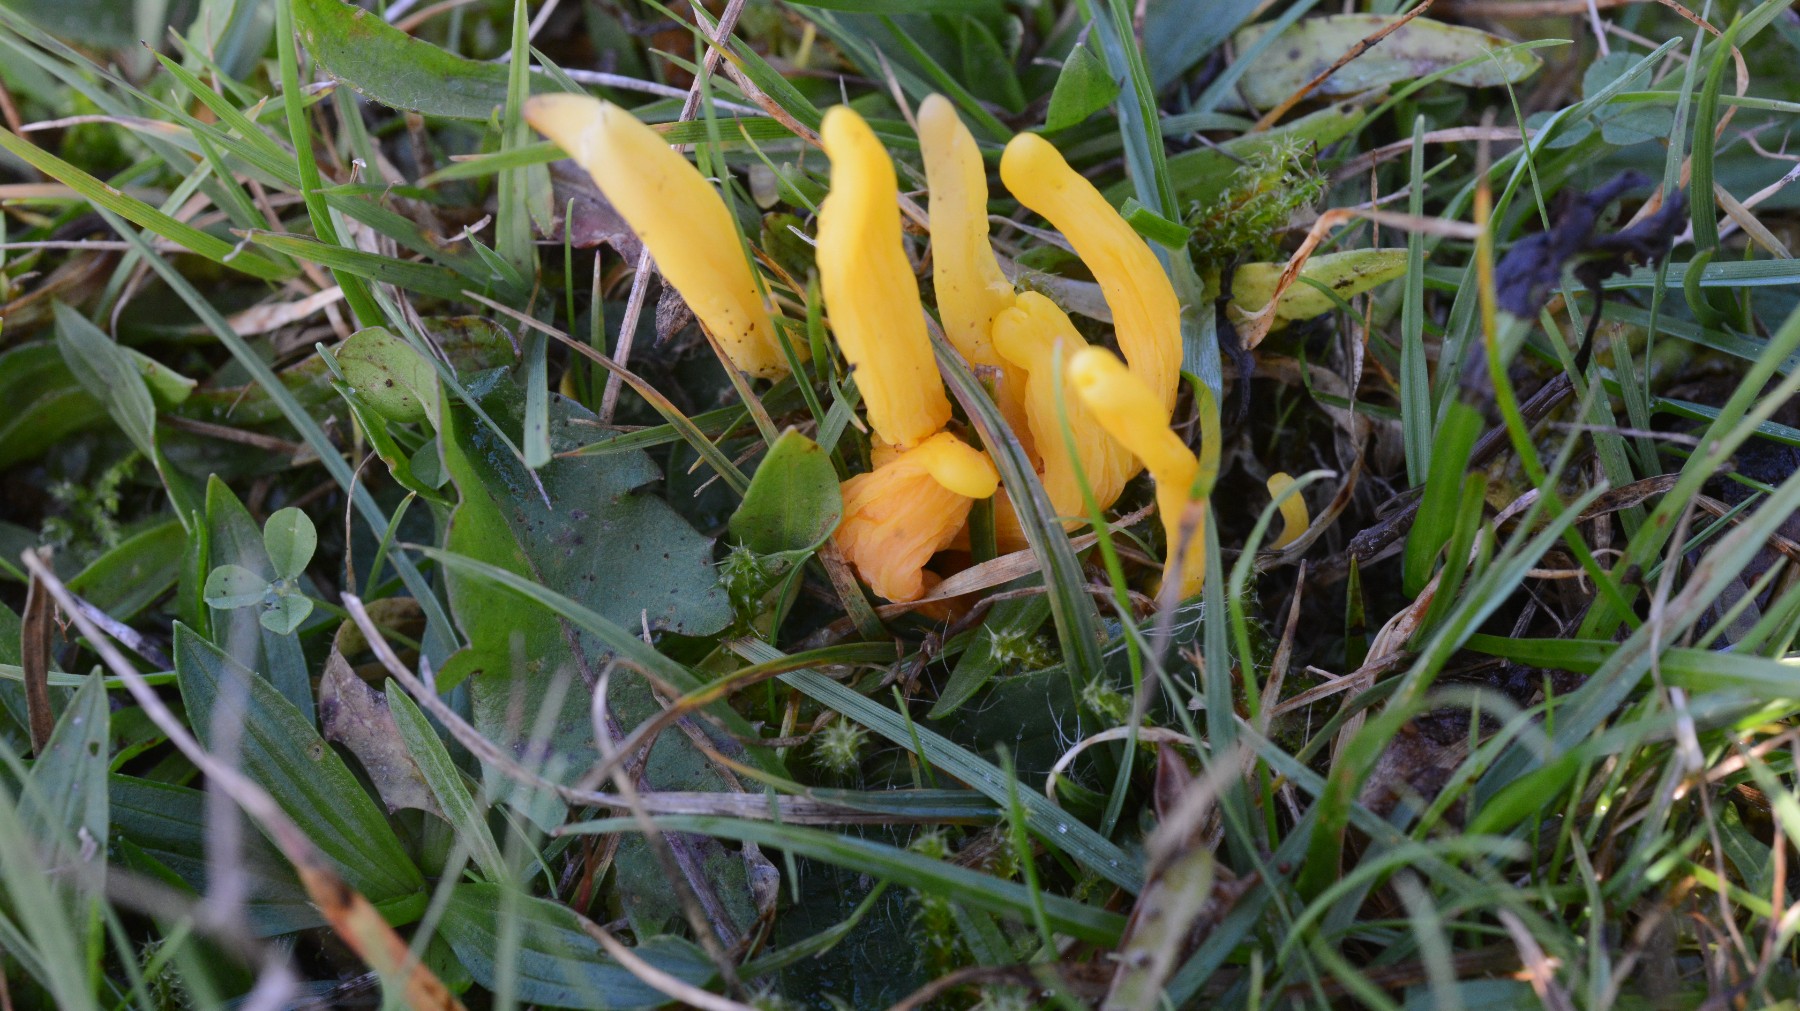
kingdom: Fungi
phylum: Basidiomycota
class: Agaricomycetes
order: Agaricales
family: Clavariaceae
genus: Clavulinopsis
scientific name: Clavulinopsis helvola
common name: orangegul køllesvamp
